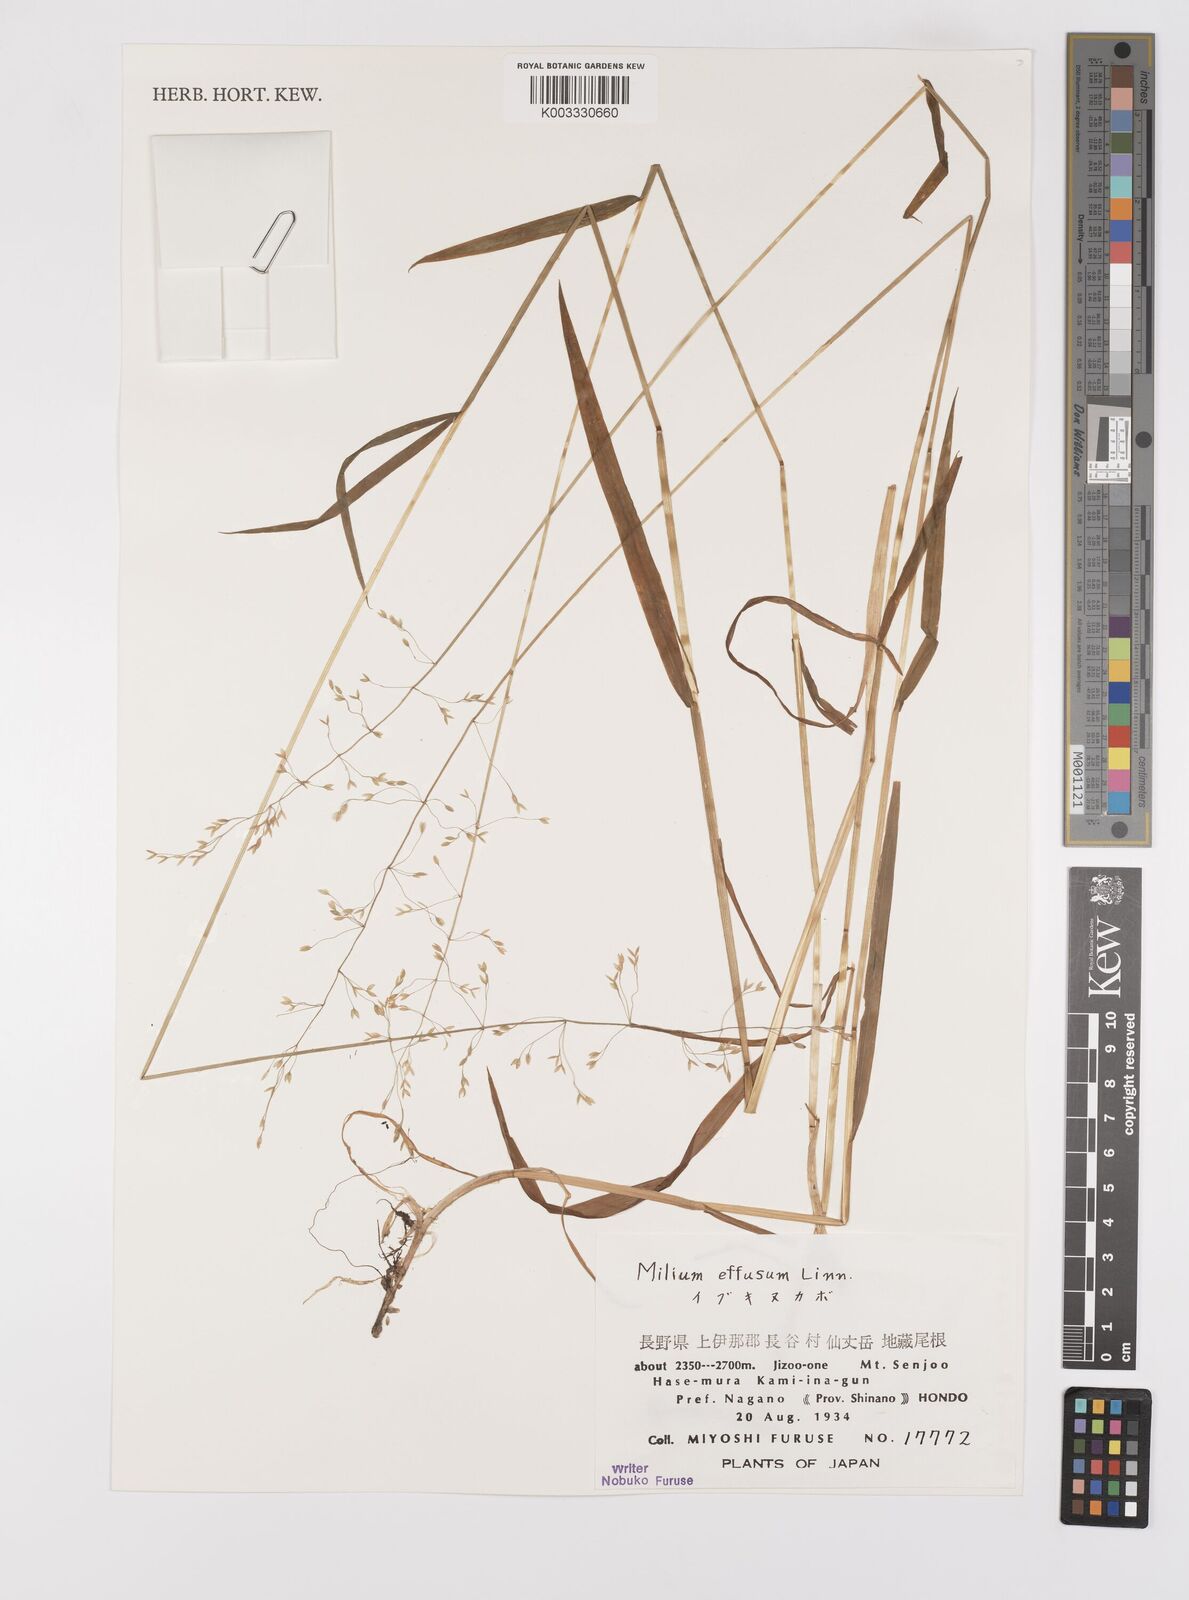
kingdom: Plantae
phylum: Tracheophyta
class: Liliopsida
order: Poales
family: Poaceae
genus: Milium
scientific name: Milium effusum
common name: Wood millet
